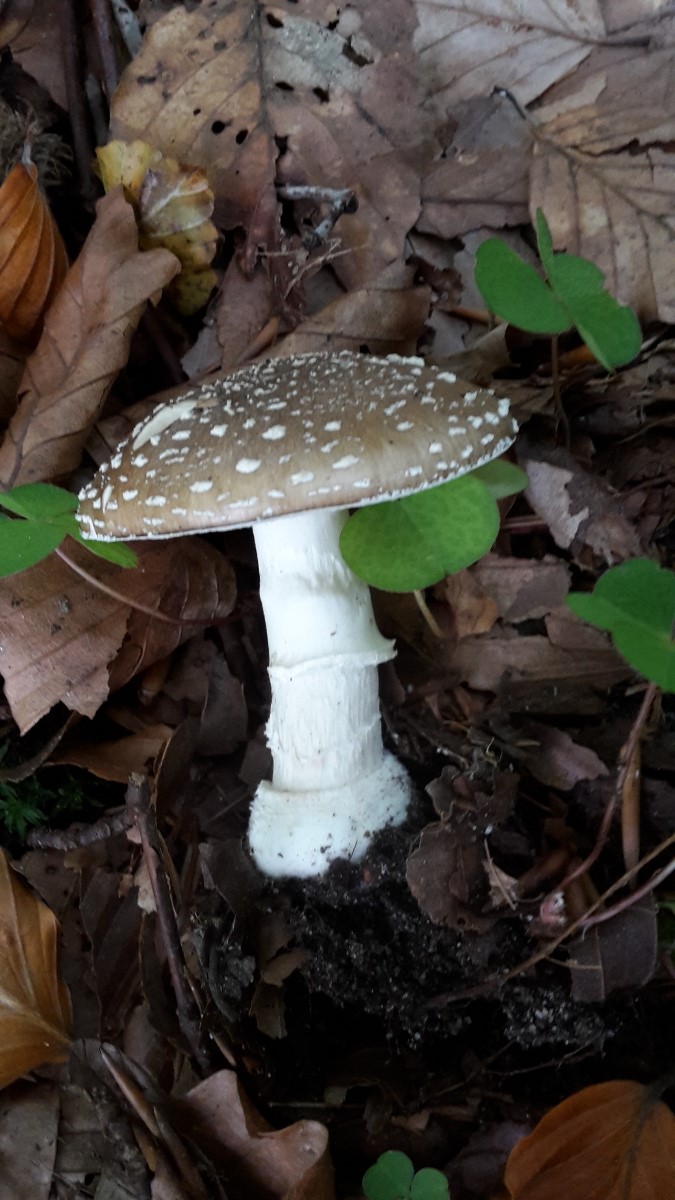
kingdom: Fungi
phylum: Basidiomycota
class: Agaricomycetes
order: Agaricales
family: Amanitaceae
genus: Amanita
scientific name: Amanita pantherina
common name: panter-fluesvamp
